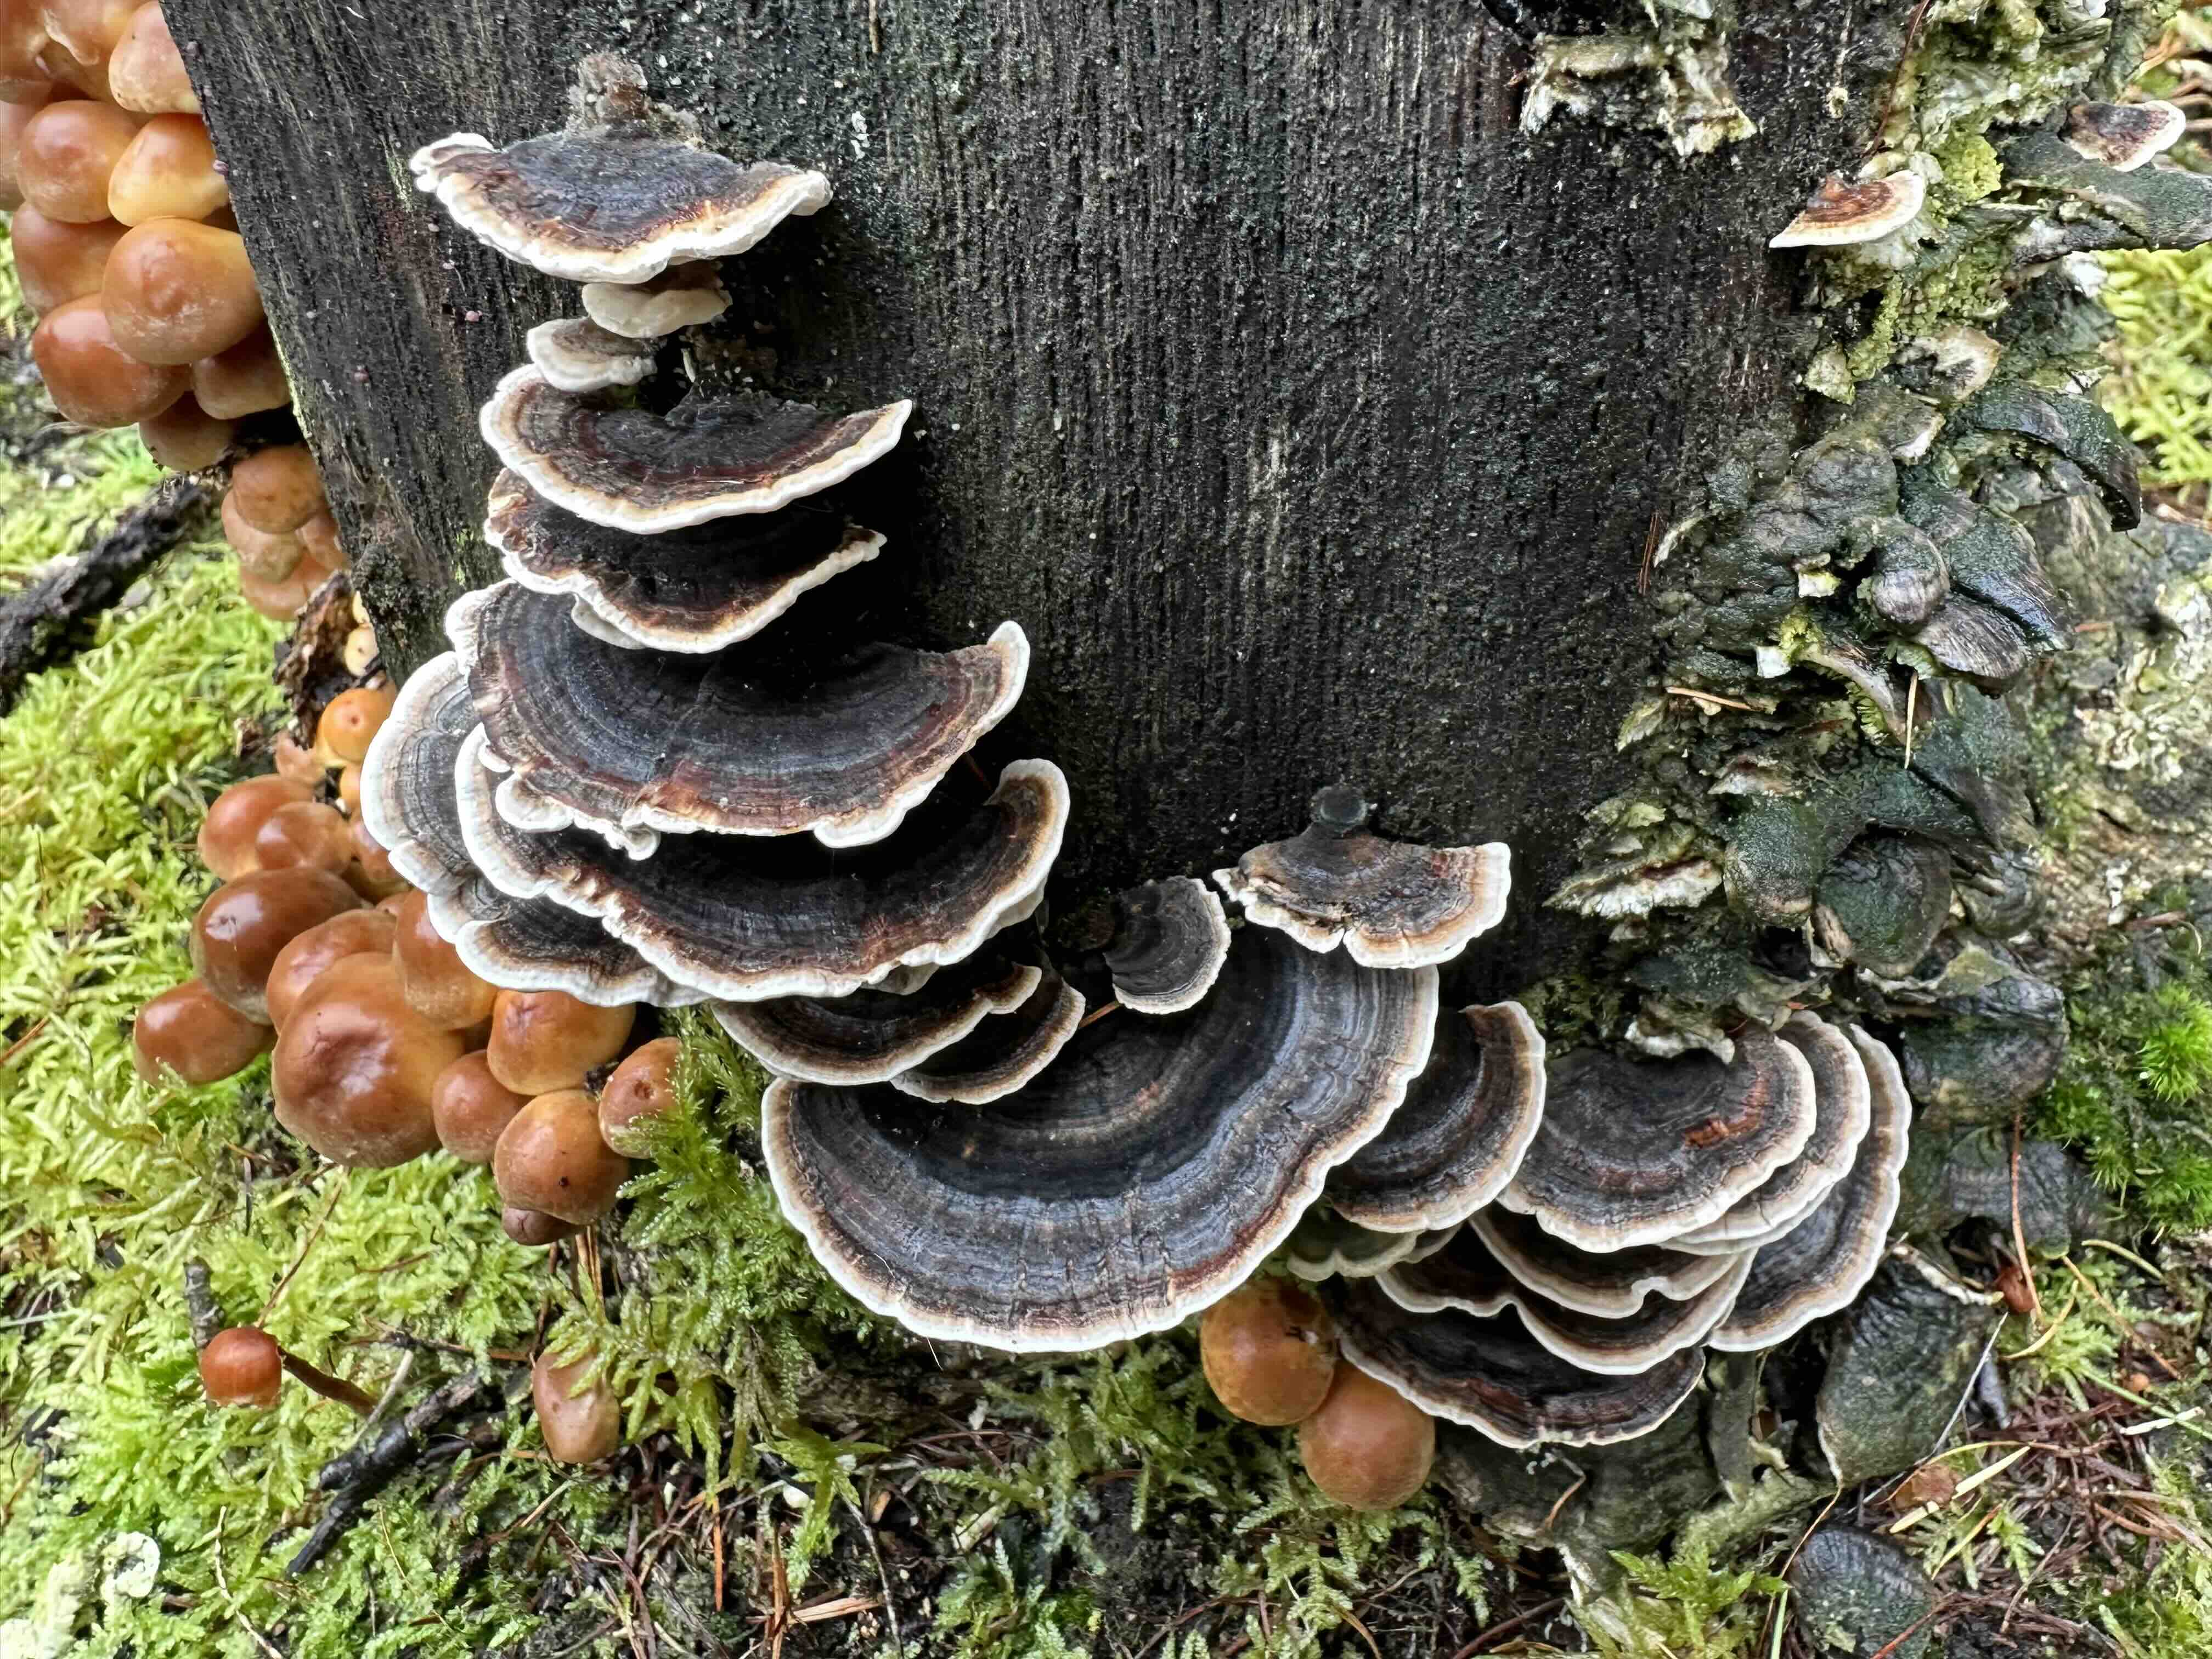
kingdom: Fungi
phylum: Basidiomycota
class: Agaricomycetes
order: Polyporales
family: Polyporaceae
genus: Trametes
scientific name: Trametes versicolor
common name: broget læderporesvamp
